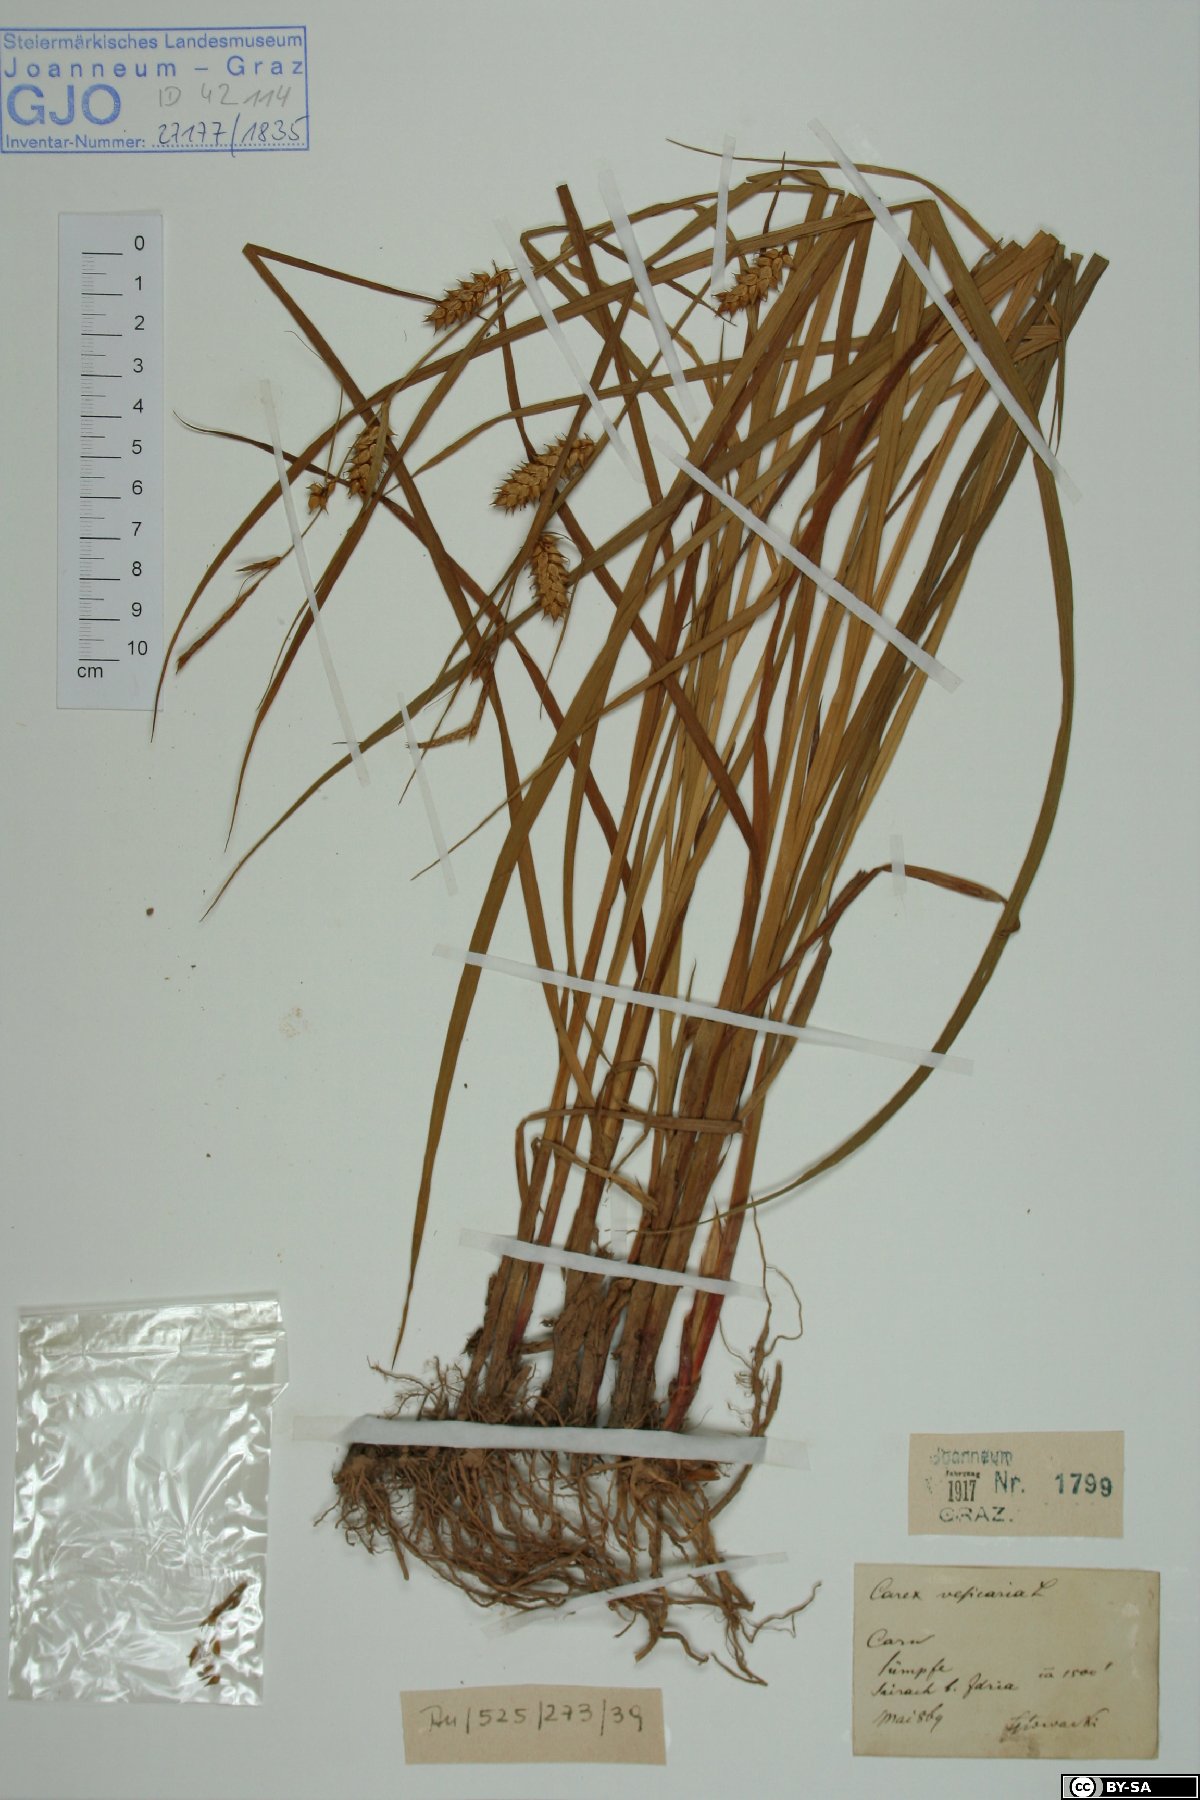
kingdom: Plantae
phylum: Tracheophyta
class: Liliopsida
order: Poales
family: Cyperaceae
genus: Carex
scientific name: Carex vesicaria
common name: Bladder-sedge
